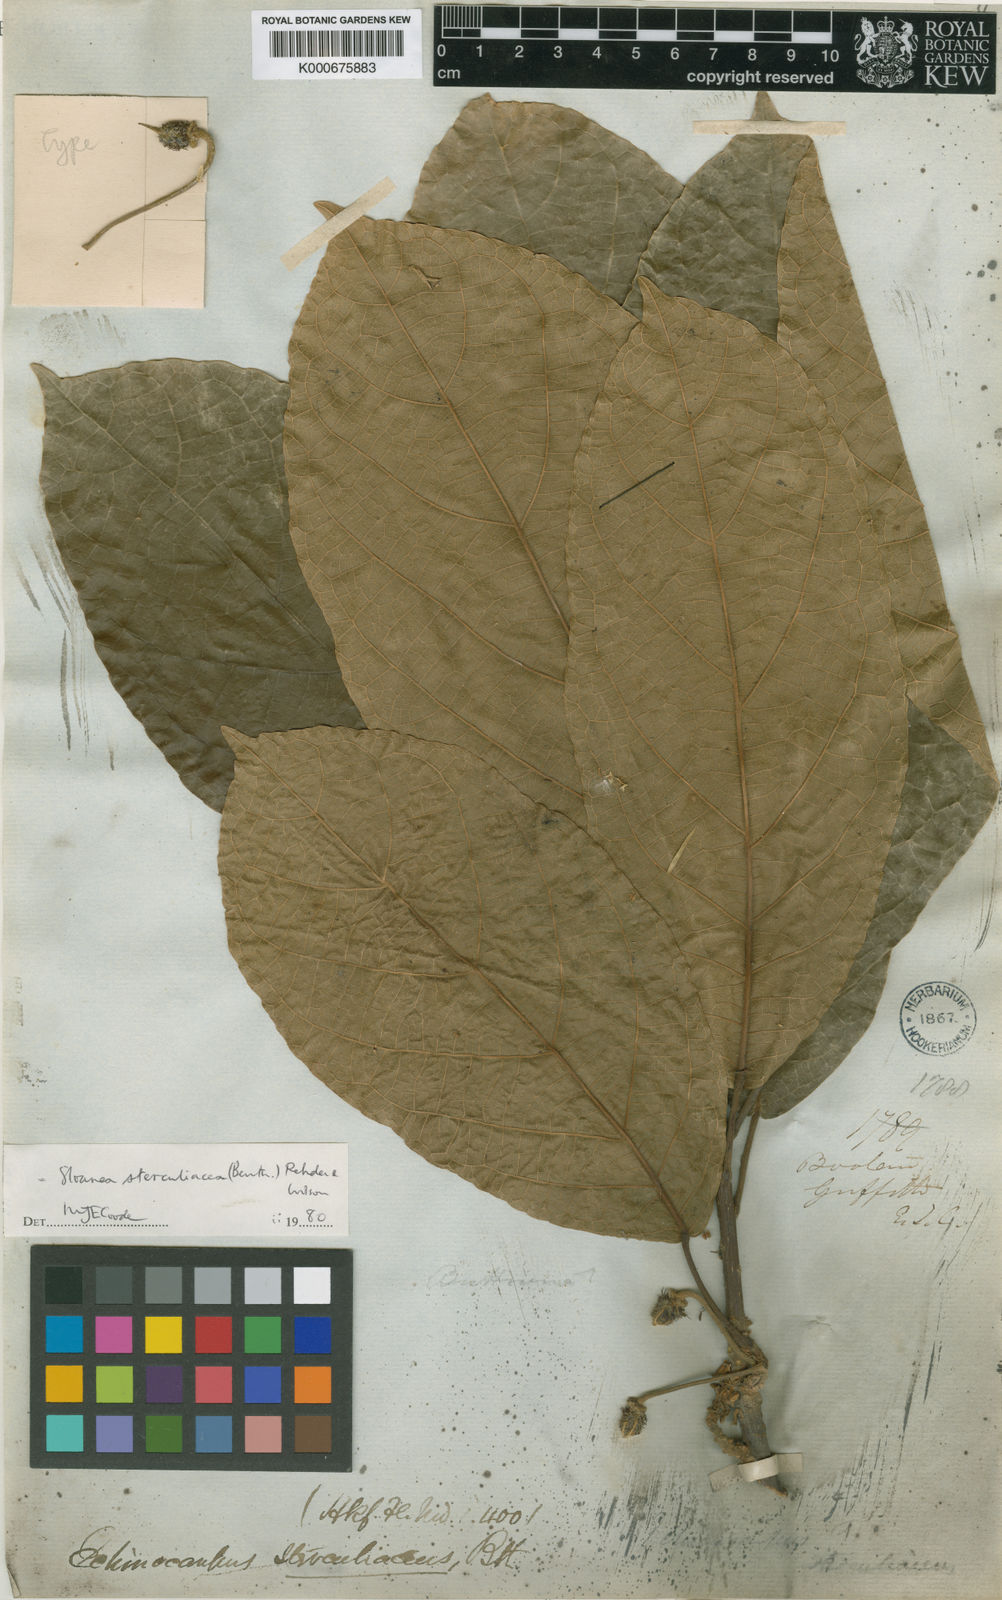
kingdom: Plantae
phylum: Tracheophyta
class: Magnoliopsida
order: Oxalidales
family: Elaeocarpaceae
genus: Sloanea
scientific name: Sloanea sterculiacea
